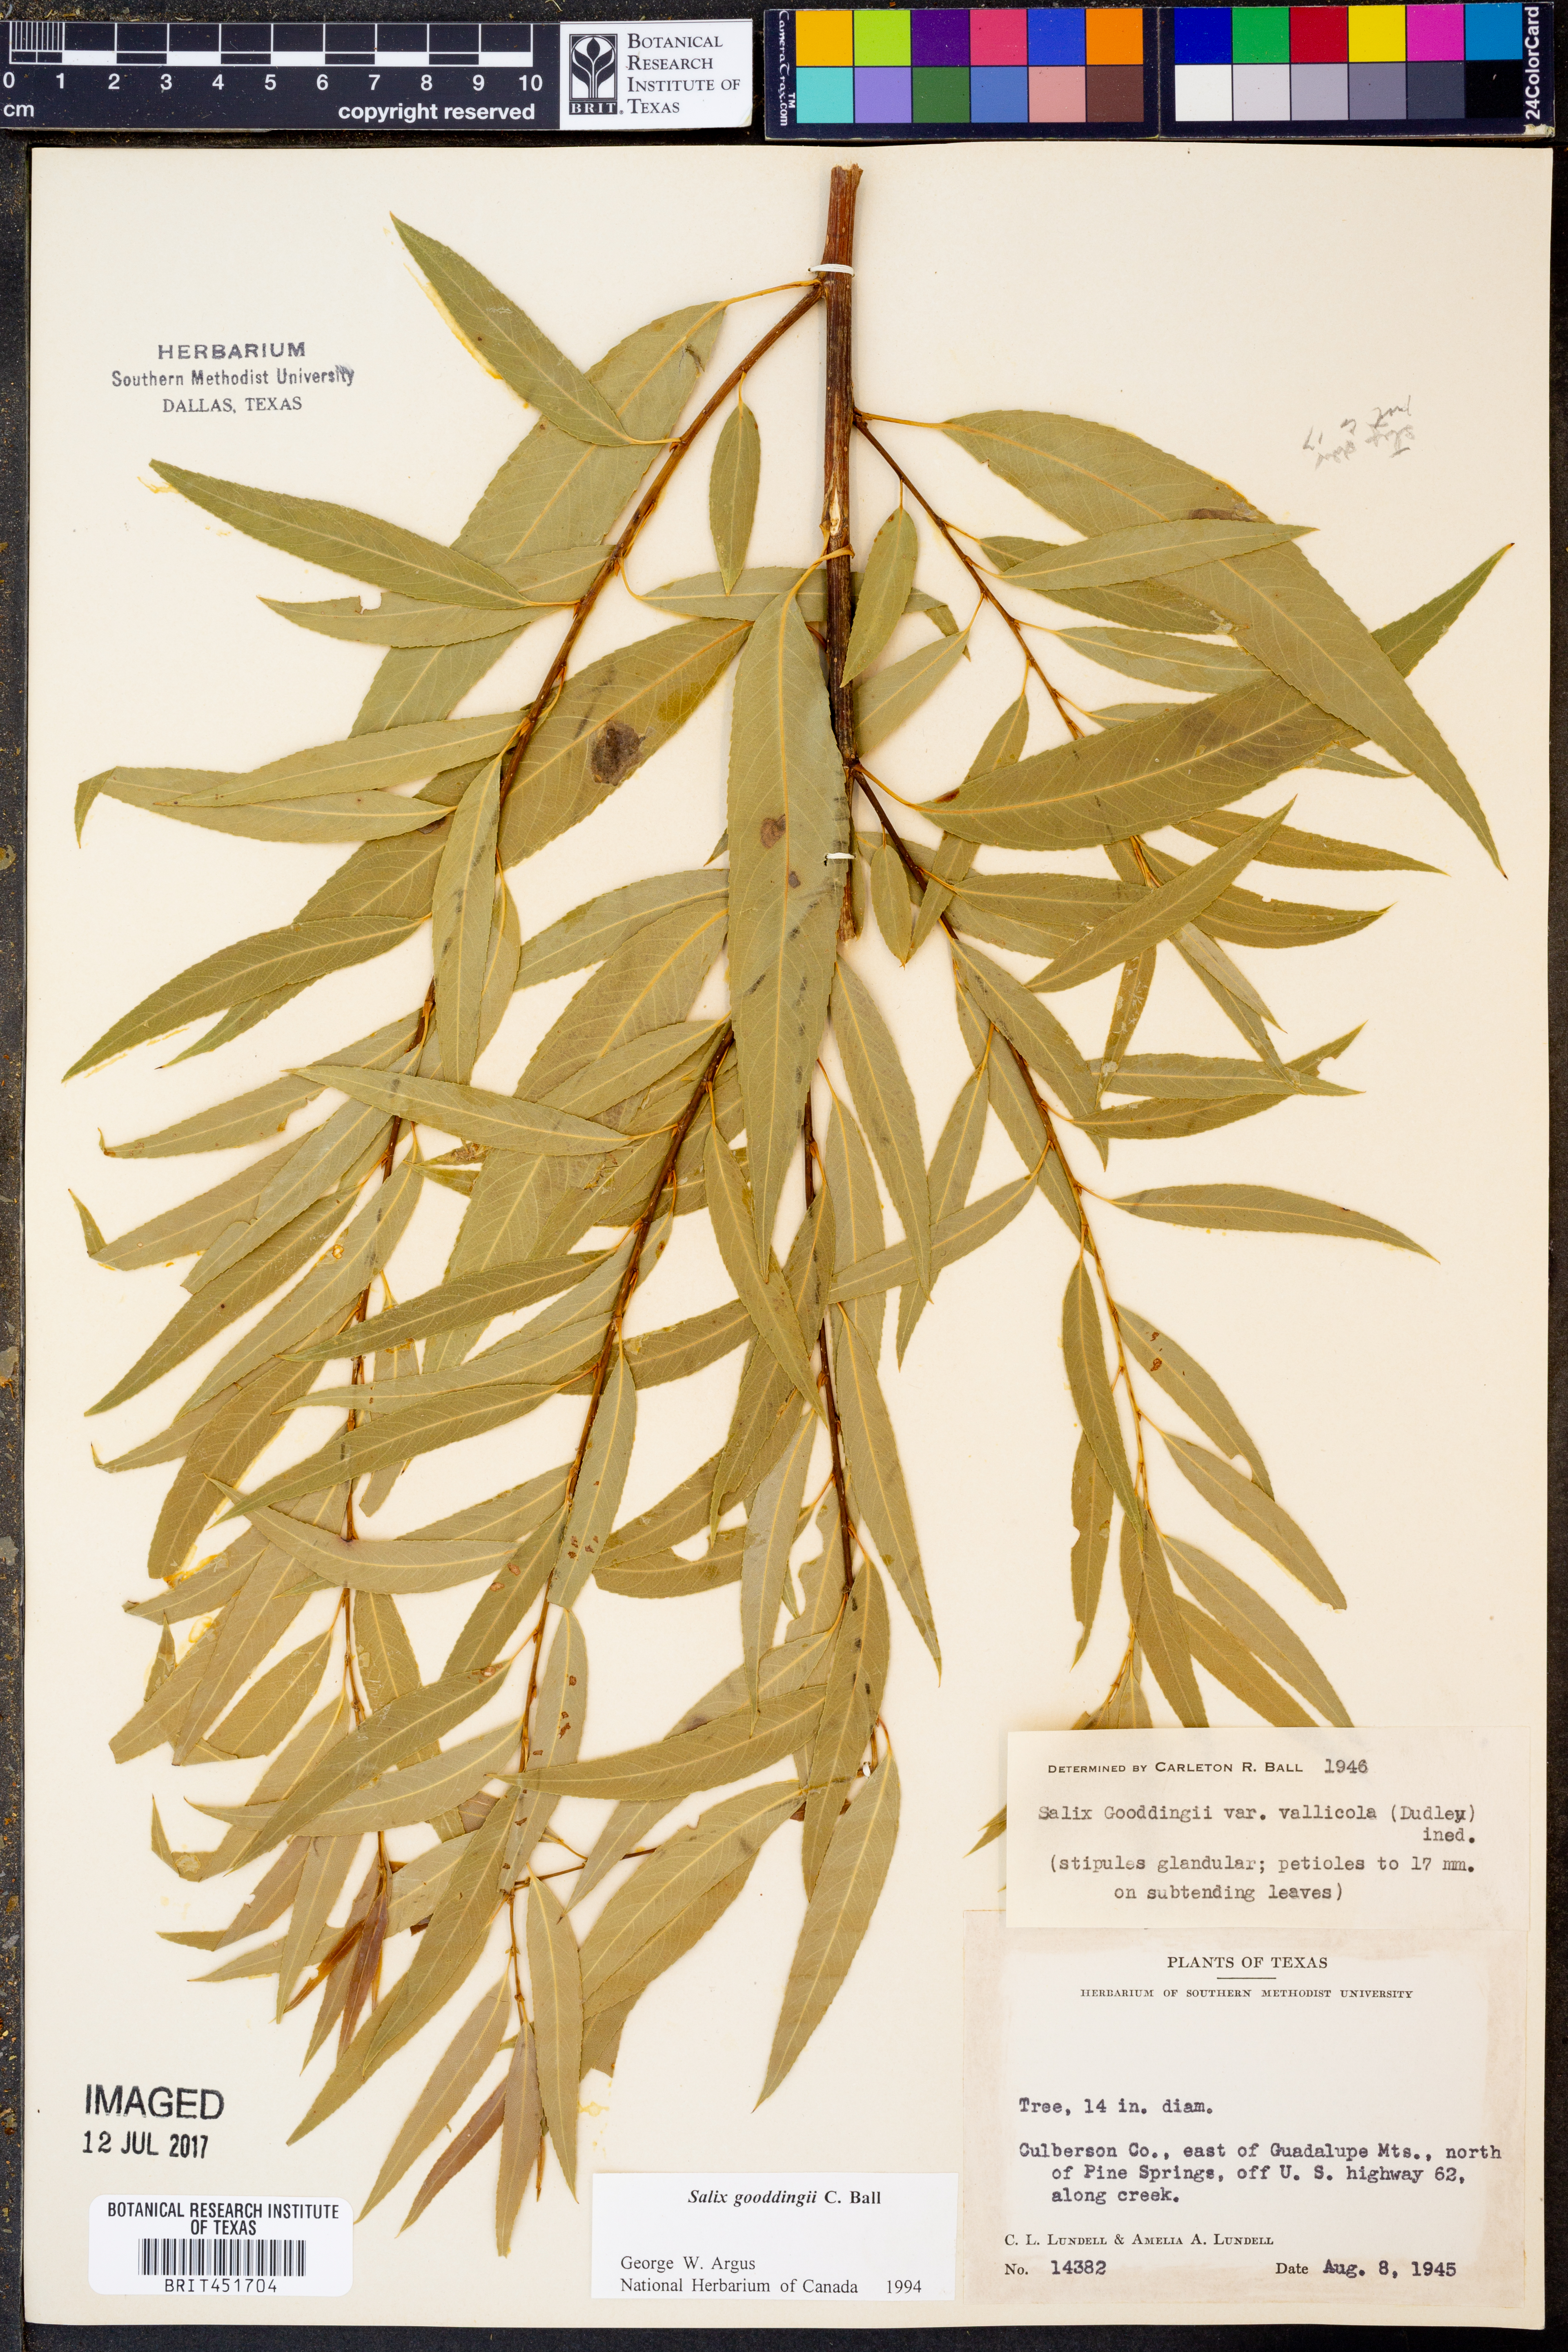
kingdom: Plantae
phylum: Tracheophyta
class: Magnoliopsida
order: Malpighiales
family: Salicaceae
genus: Salix
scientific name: Salix gooddingii
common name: Goodding's willow
